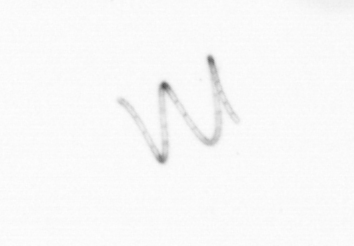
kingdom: Chromista
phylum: Ochrophyta
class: Bacillariophyceae
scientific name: Bacillariophyceae
